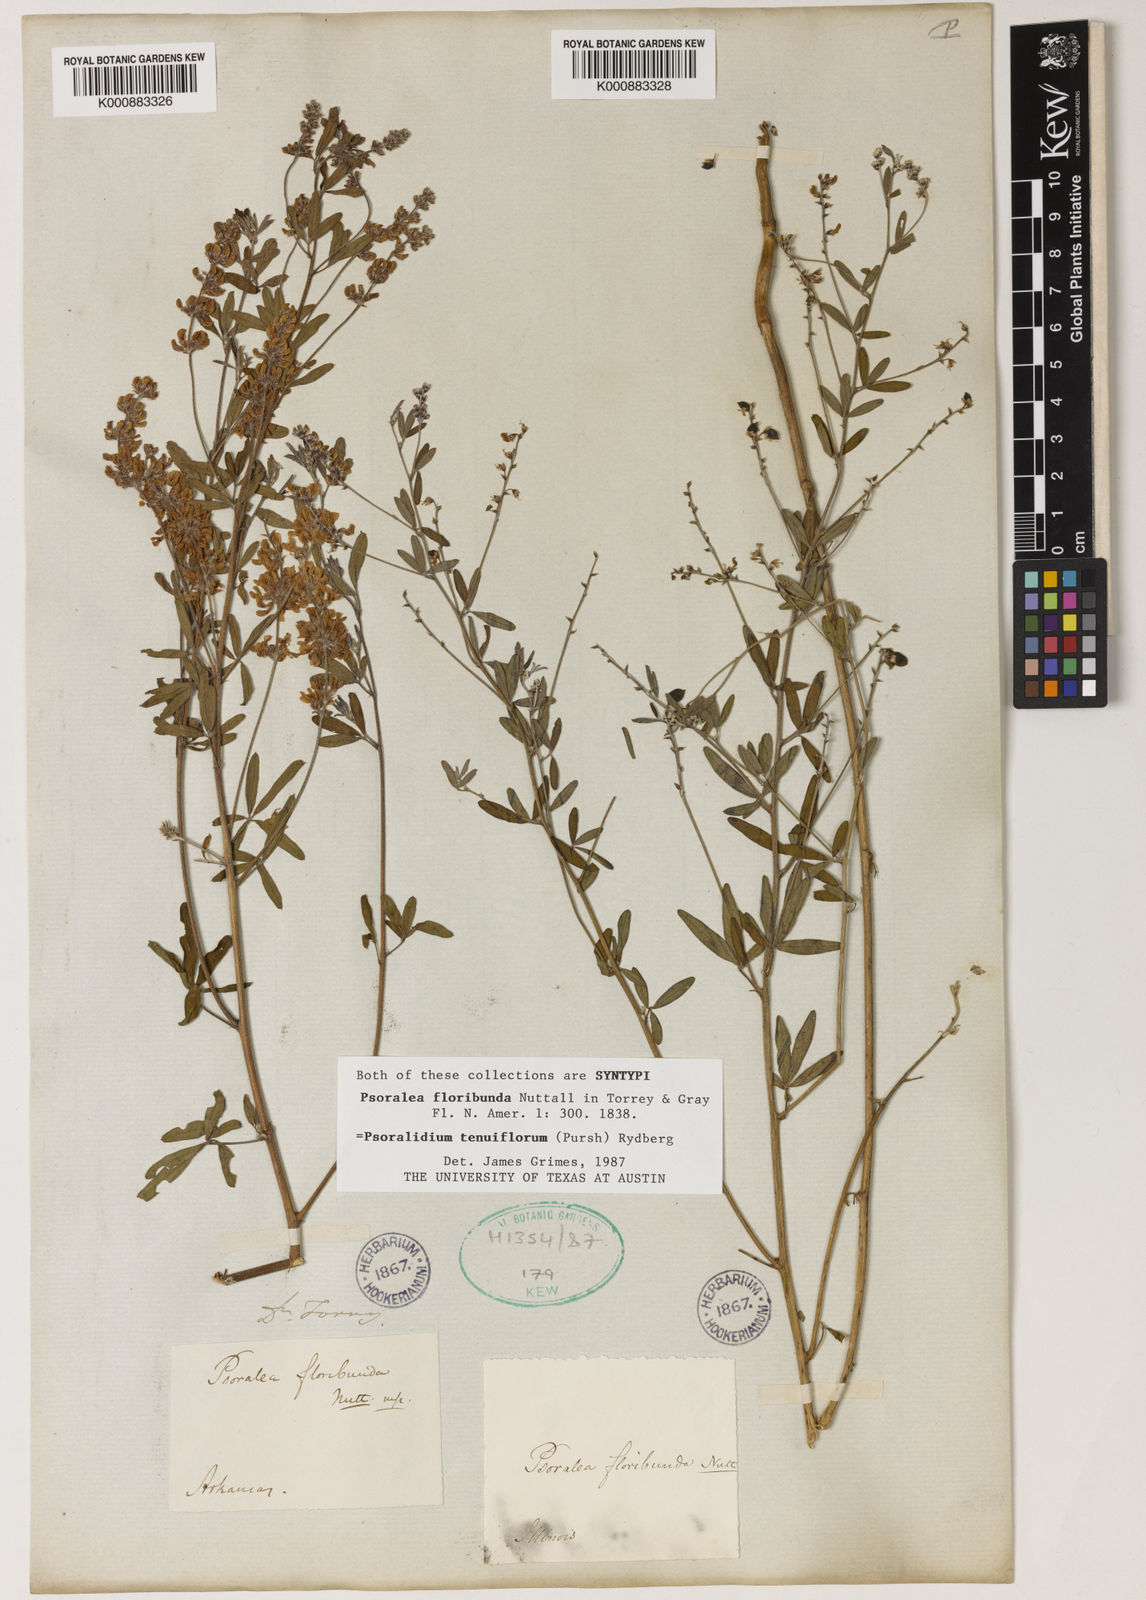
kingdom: Plantae
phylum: Tracheophyta
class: Magnoliopsida
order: Fabales
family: Fabaceae
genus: Pediomelum
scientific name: Pediomelum tenuiflorum
